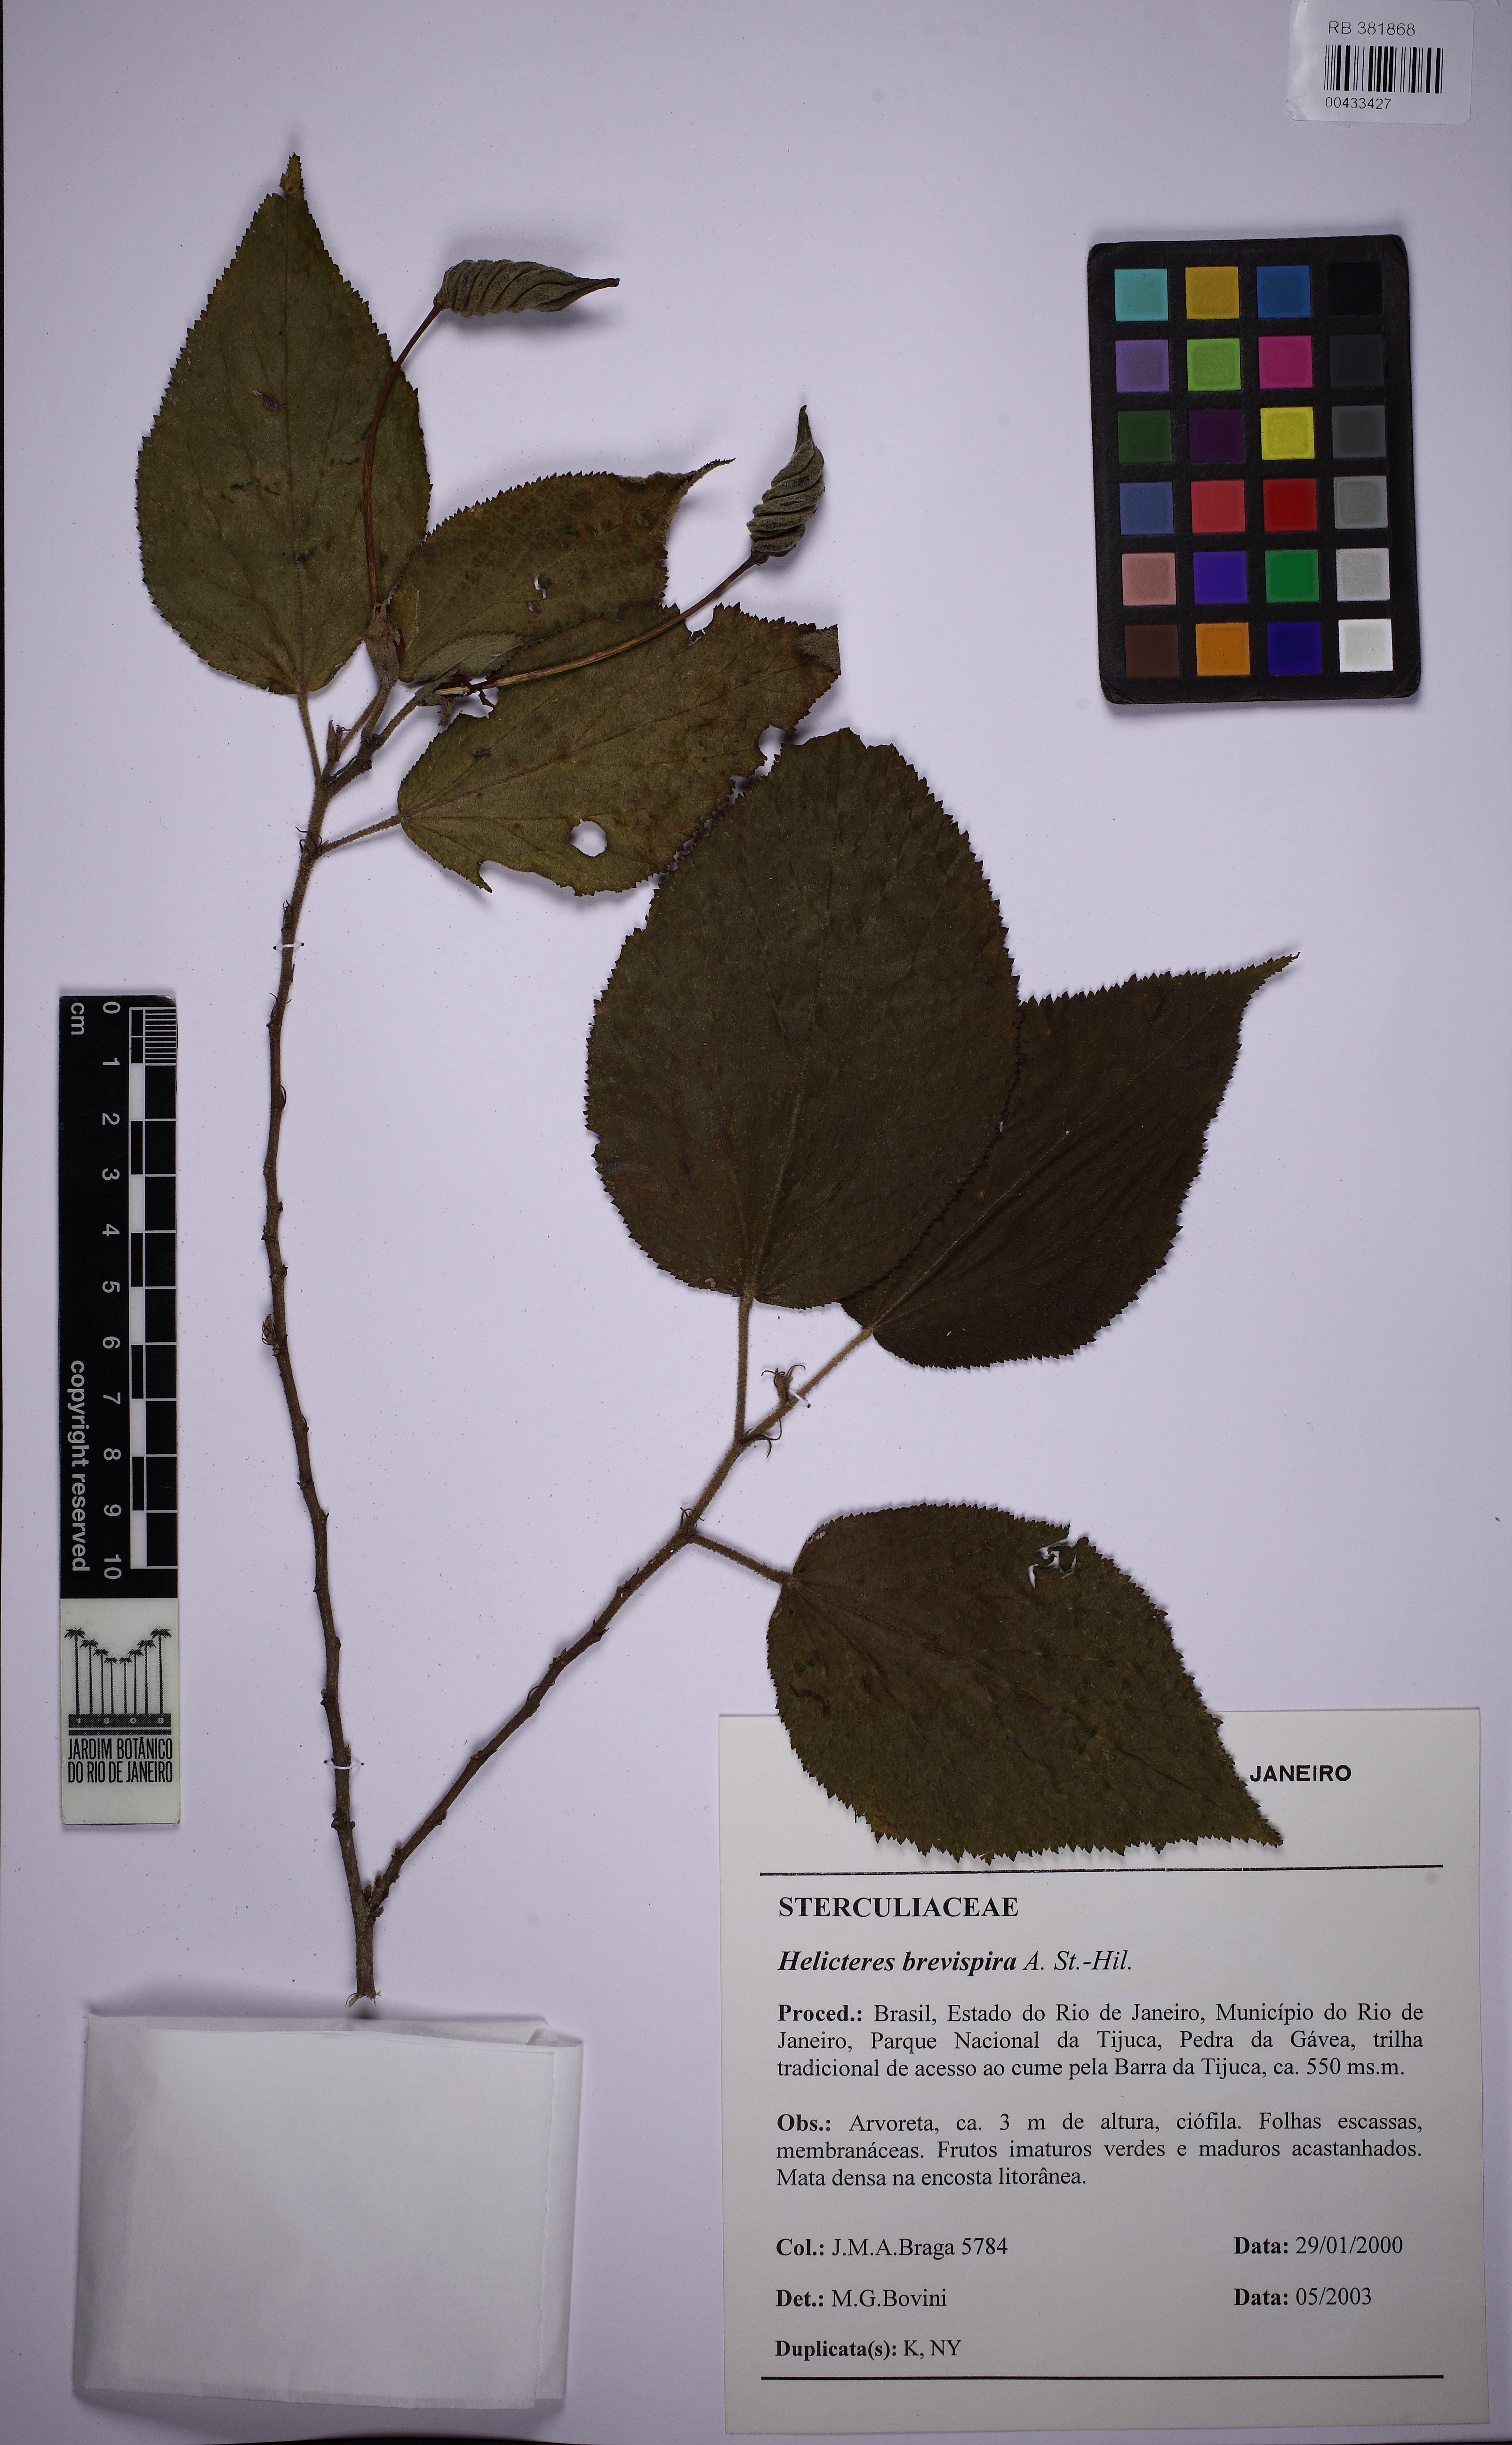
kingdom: Plantae
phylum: Tracheophyta
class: Magnoliopsida
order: Malvales
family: Malvaceae
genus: Helicteres
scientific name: Helicteres brevispira
